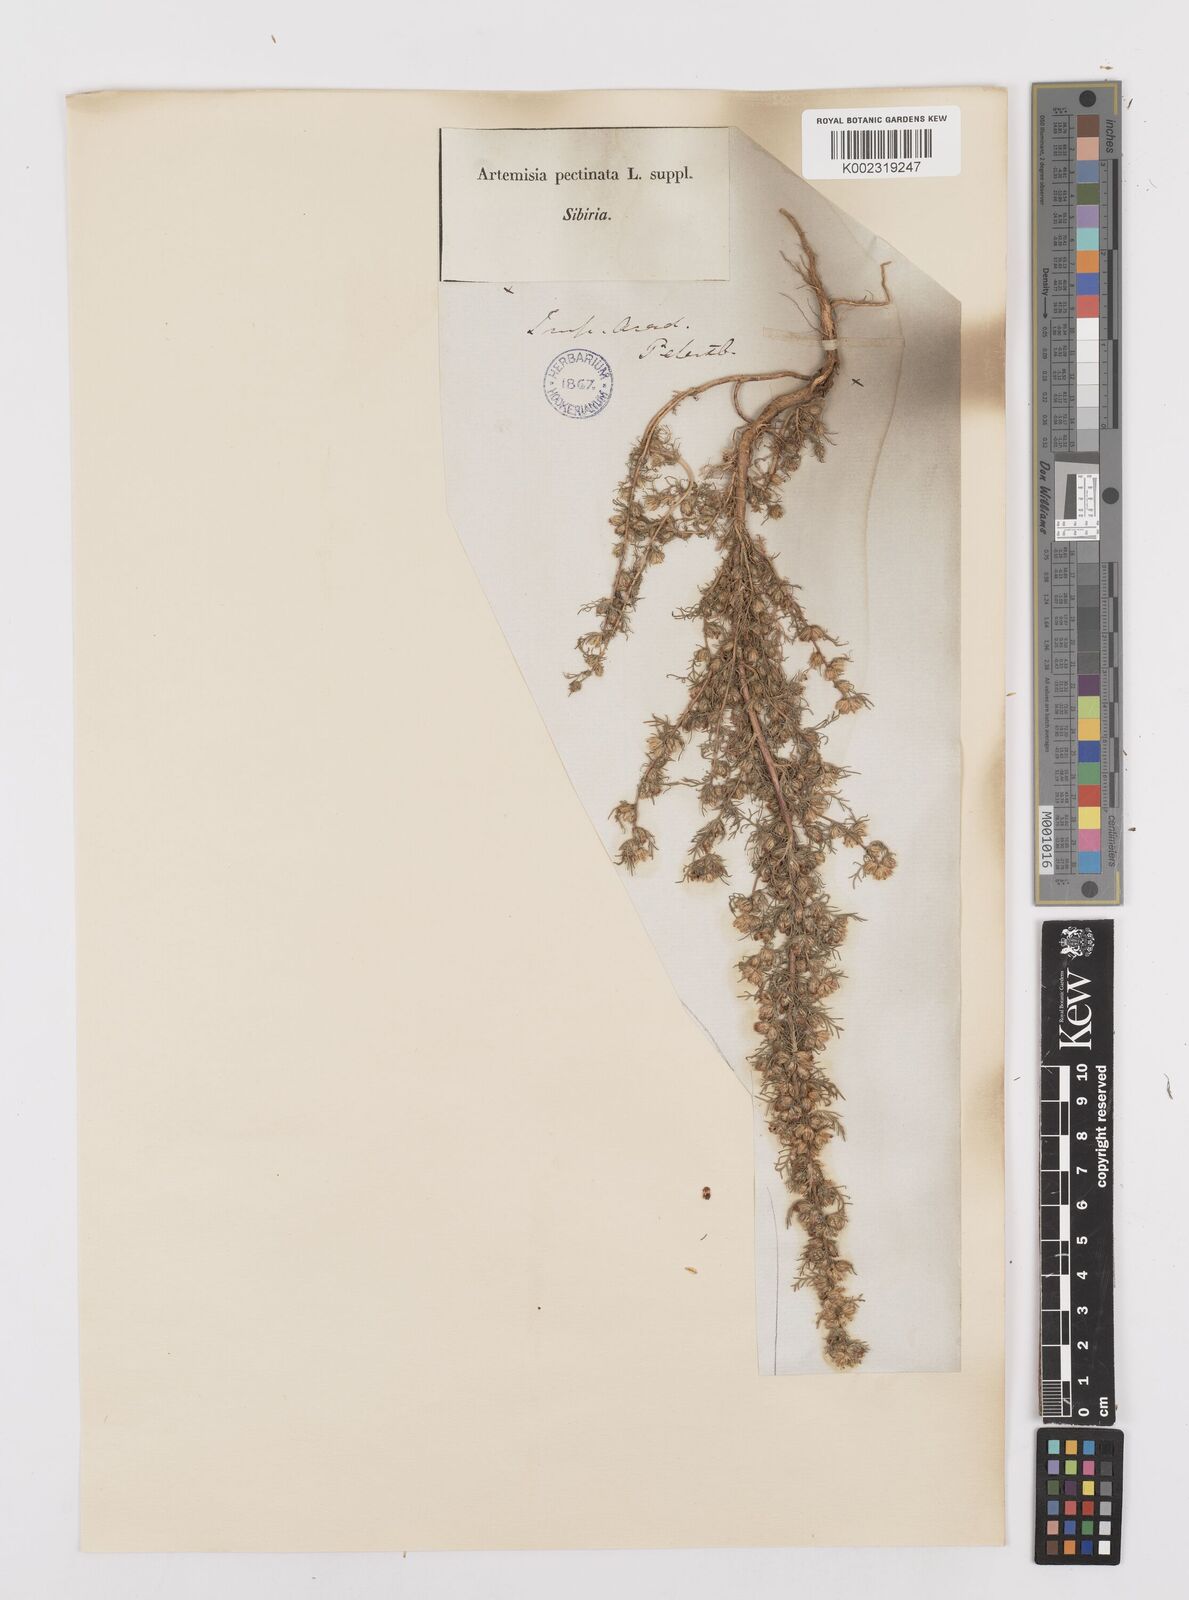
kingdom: Plantae
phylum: Tracheophyta
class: Magnoliopsida
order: Asterales
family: Asteraceae
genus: Neopallasia
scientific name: Neopallasia pectinata
